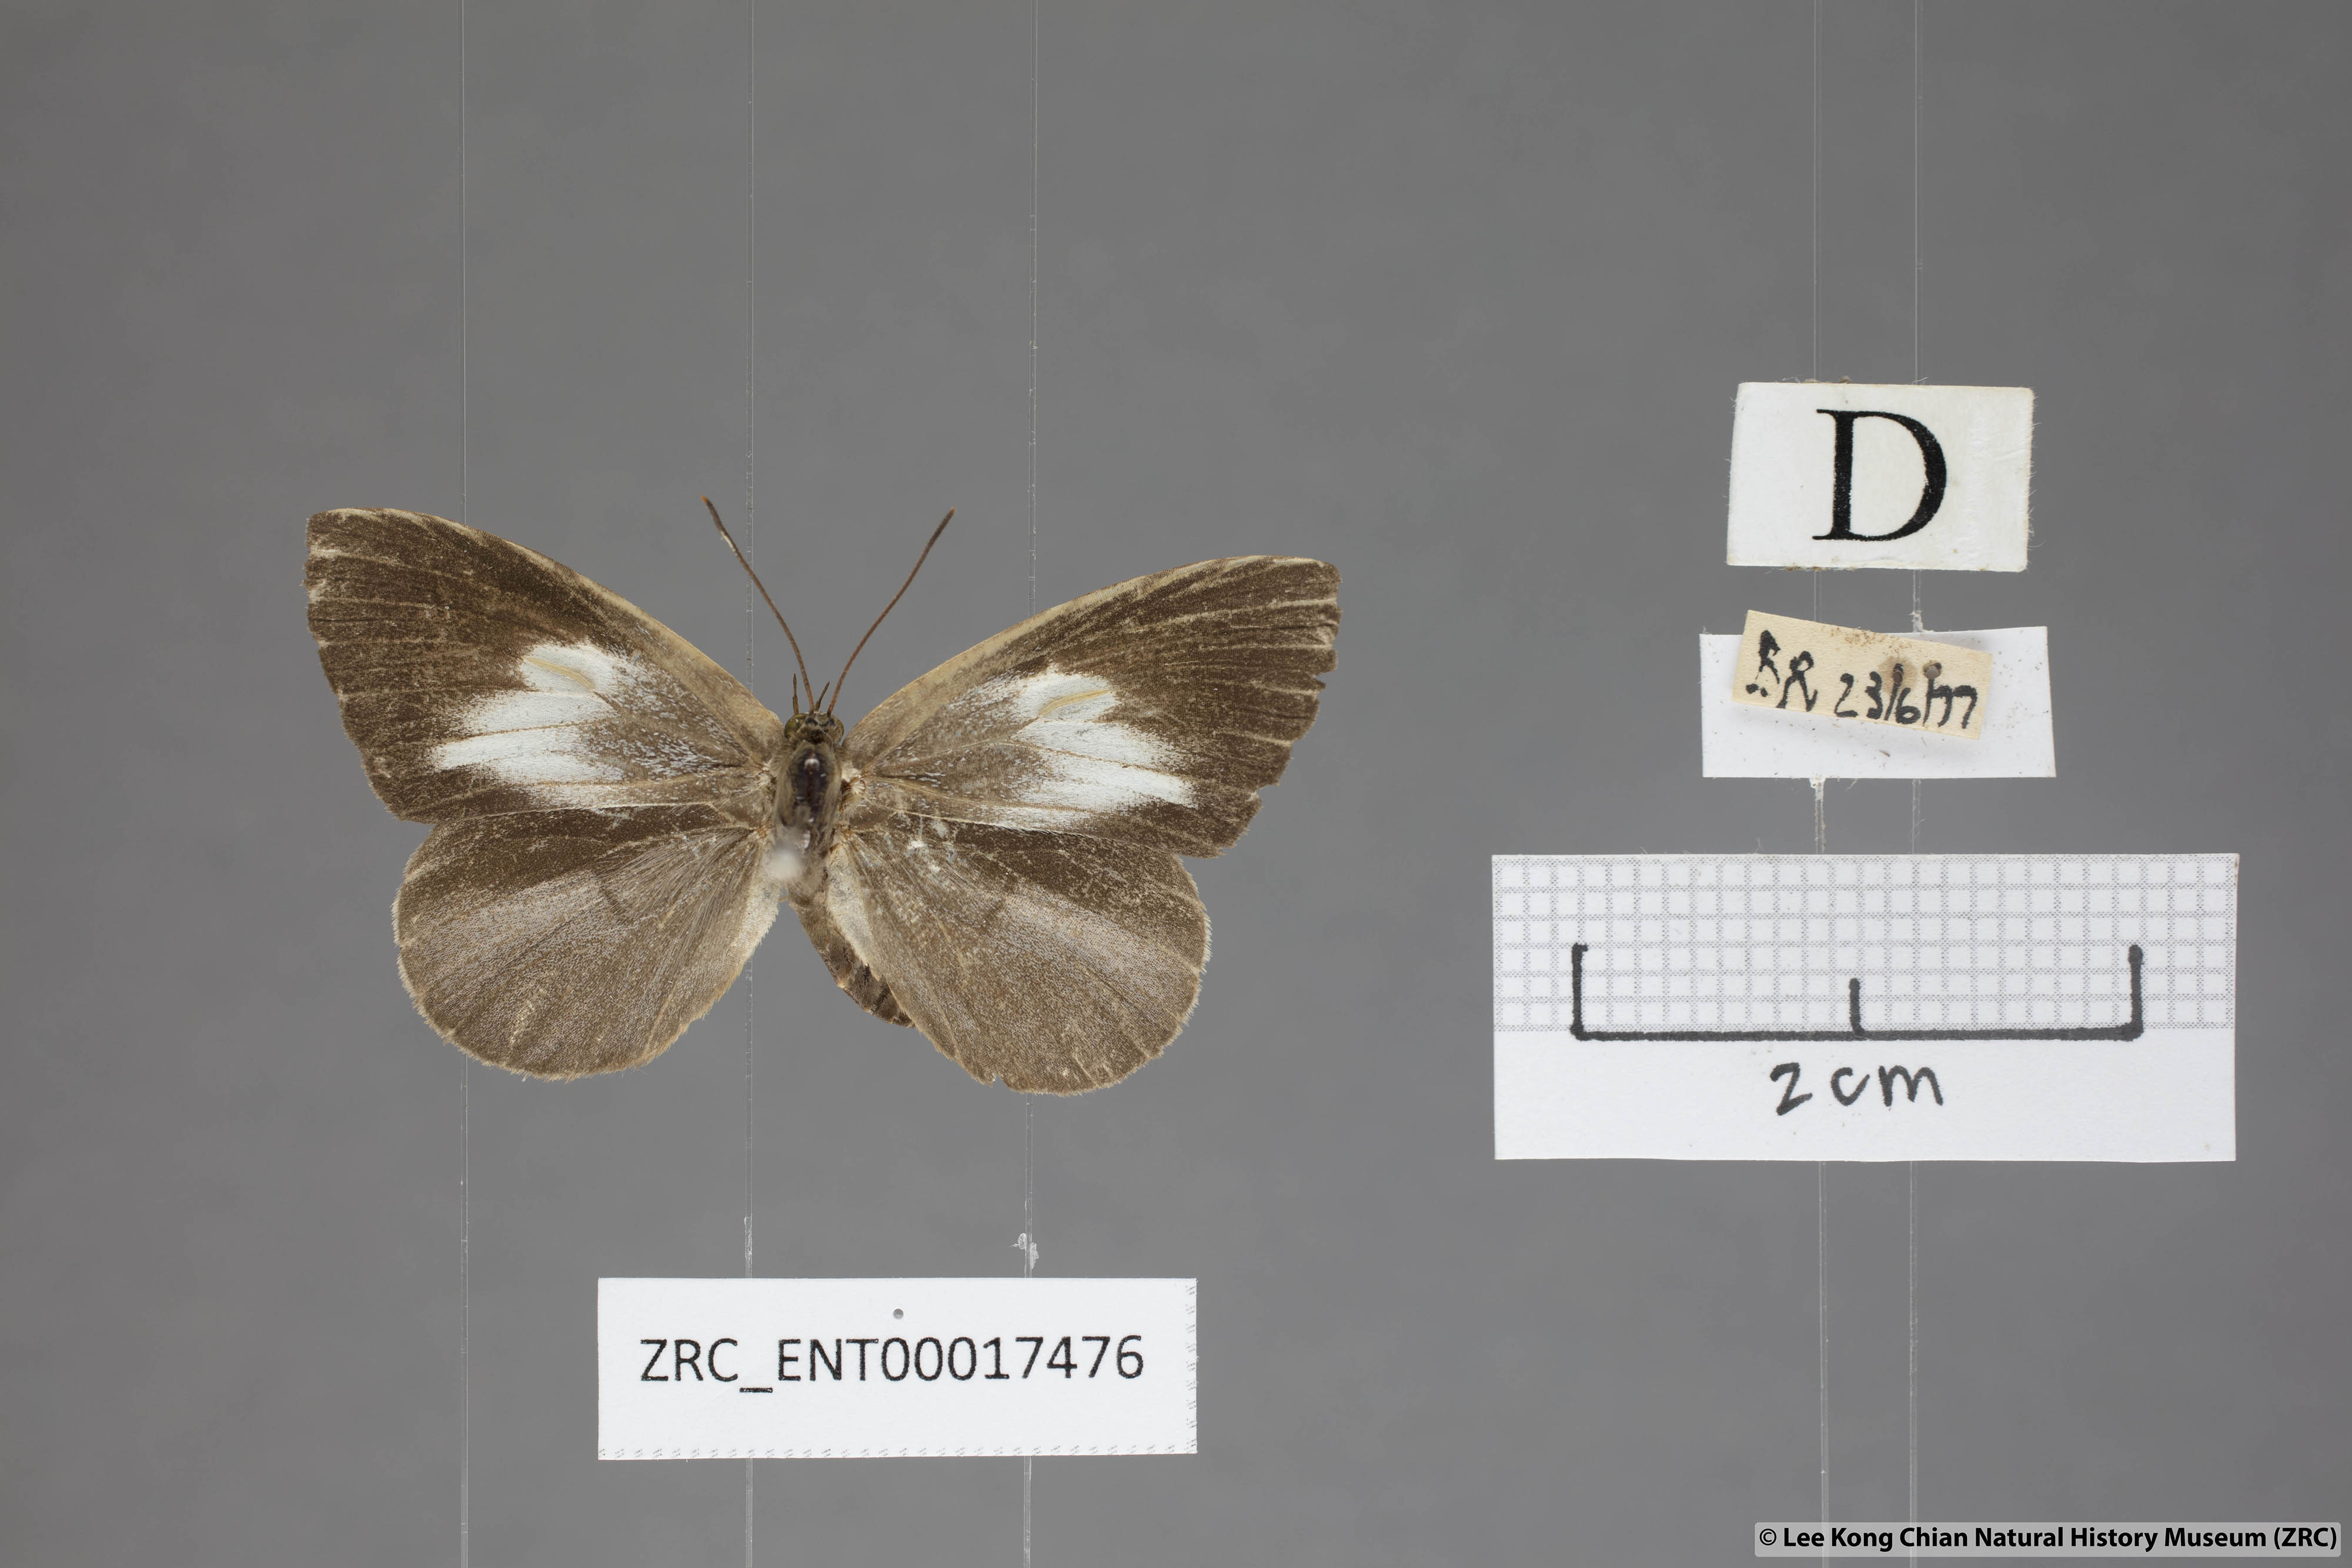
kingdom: Animalia
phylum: Arthropoda
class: Insecta
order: Lepidoptera
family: Lycaenidae
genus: Miletus
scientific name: Miletus symethus
